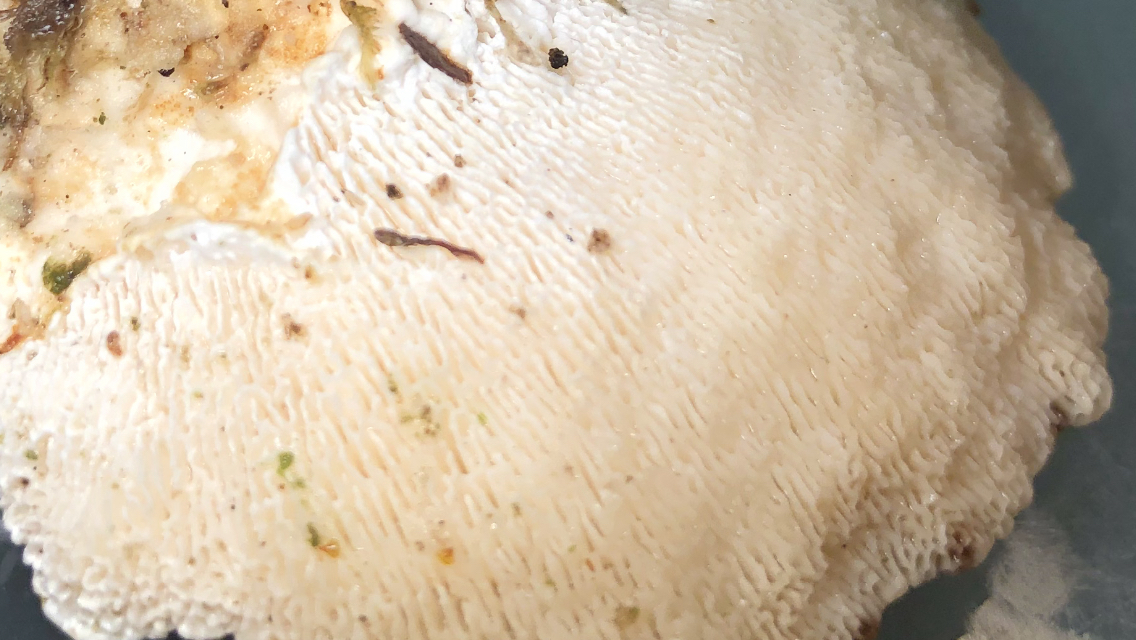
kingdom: Fungi
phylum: Basidiomycota
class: Agaricomycetes
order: Polyporales
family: Polyporaceae
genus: Trametes
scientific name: Trametes gibbosa
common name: puklet læderporesvamp
